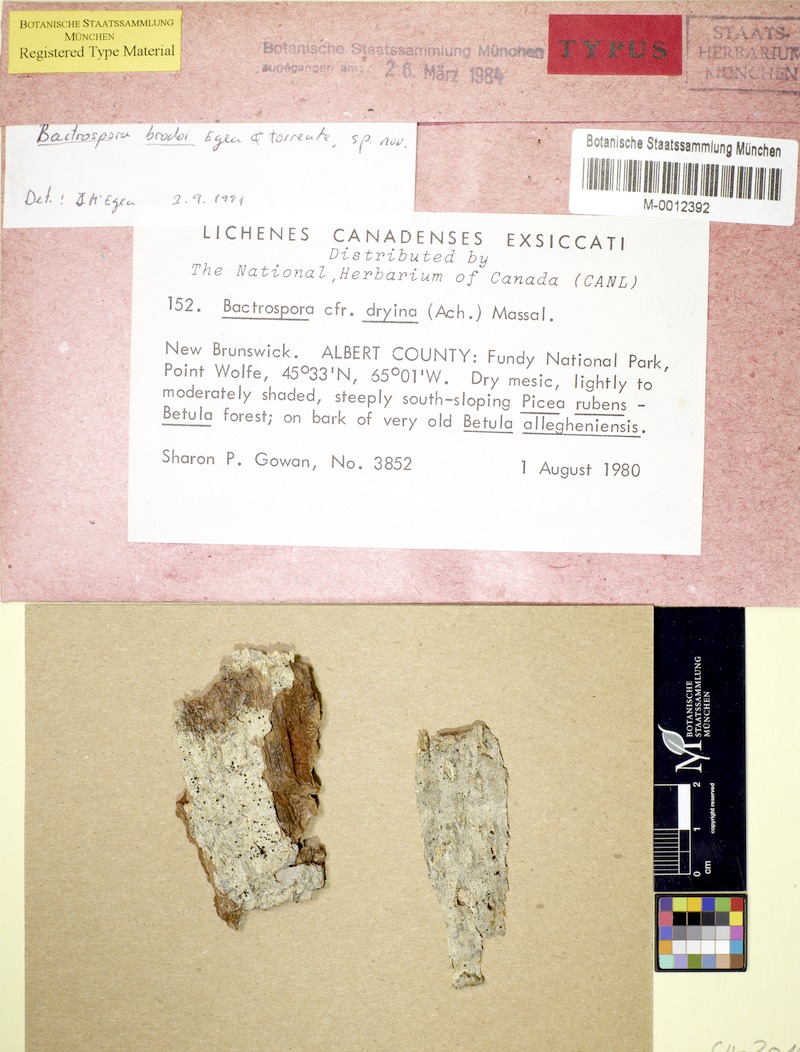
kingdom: Fungi
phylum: Ascomycota
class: Arthoniomycetes
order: Arthoniales
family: Roccellaceae
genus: Bactrospora
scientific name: Bactrospora brodoi
